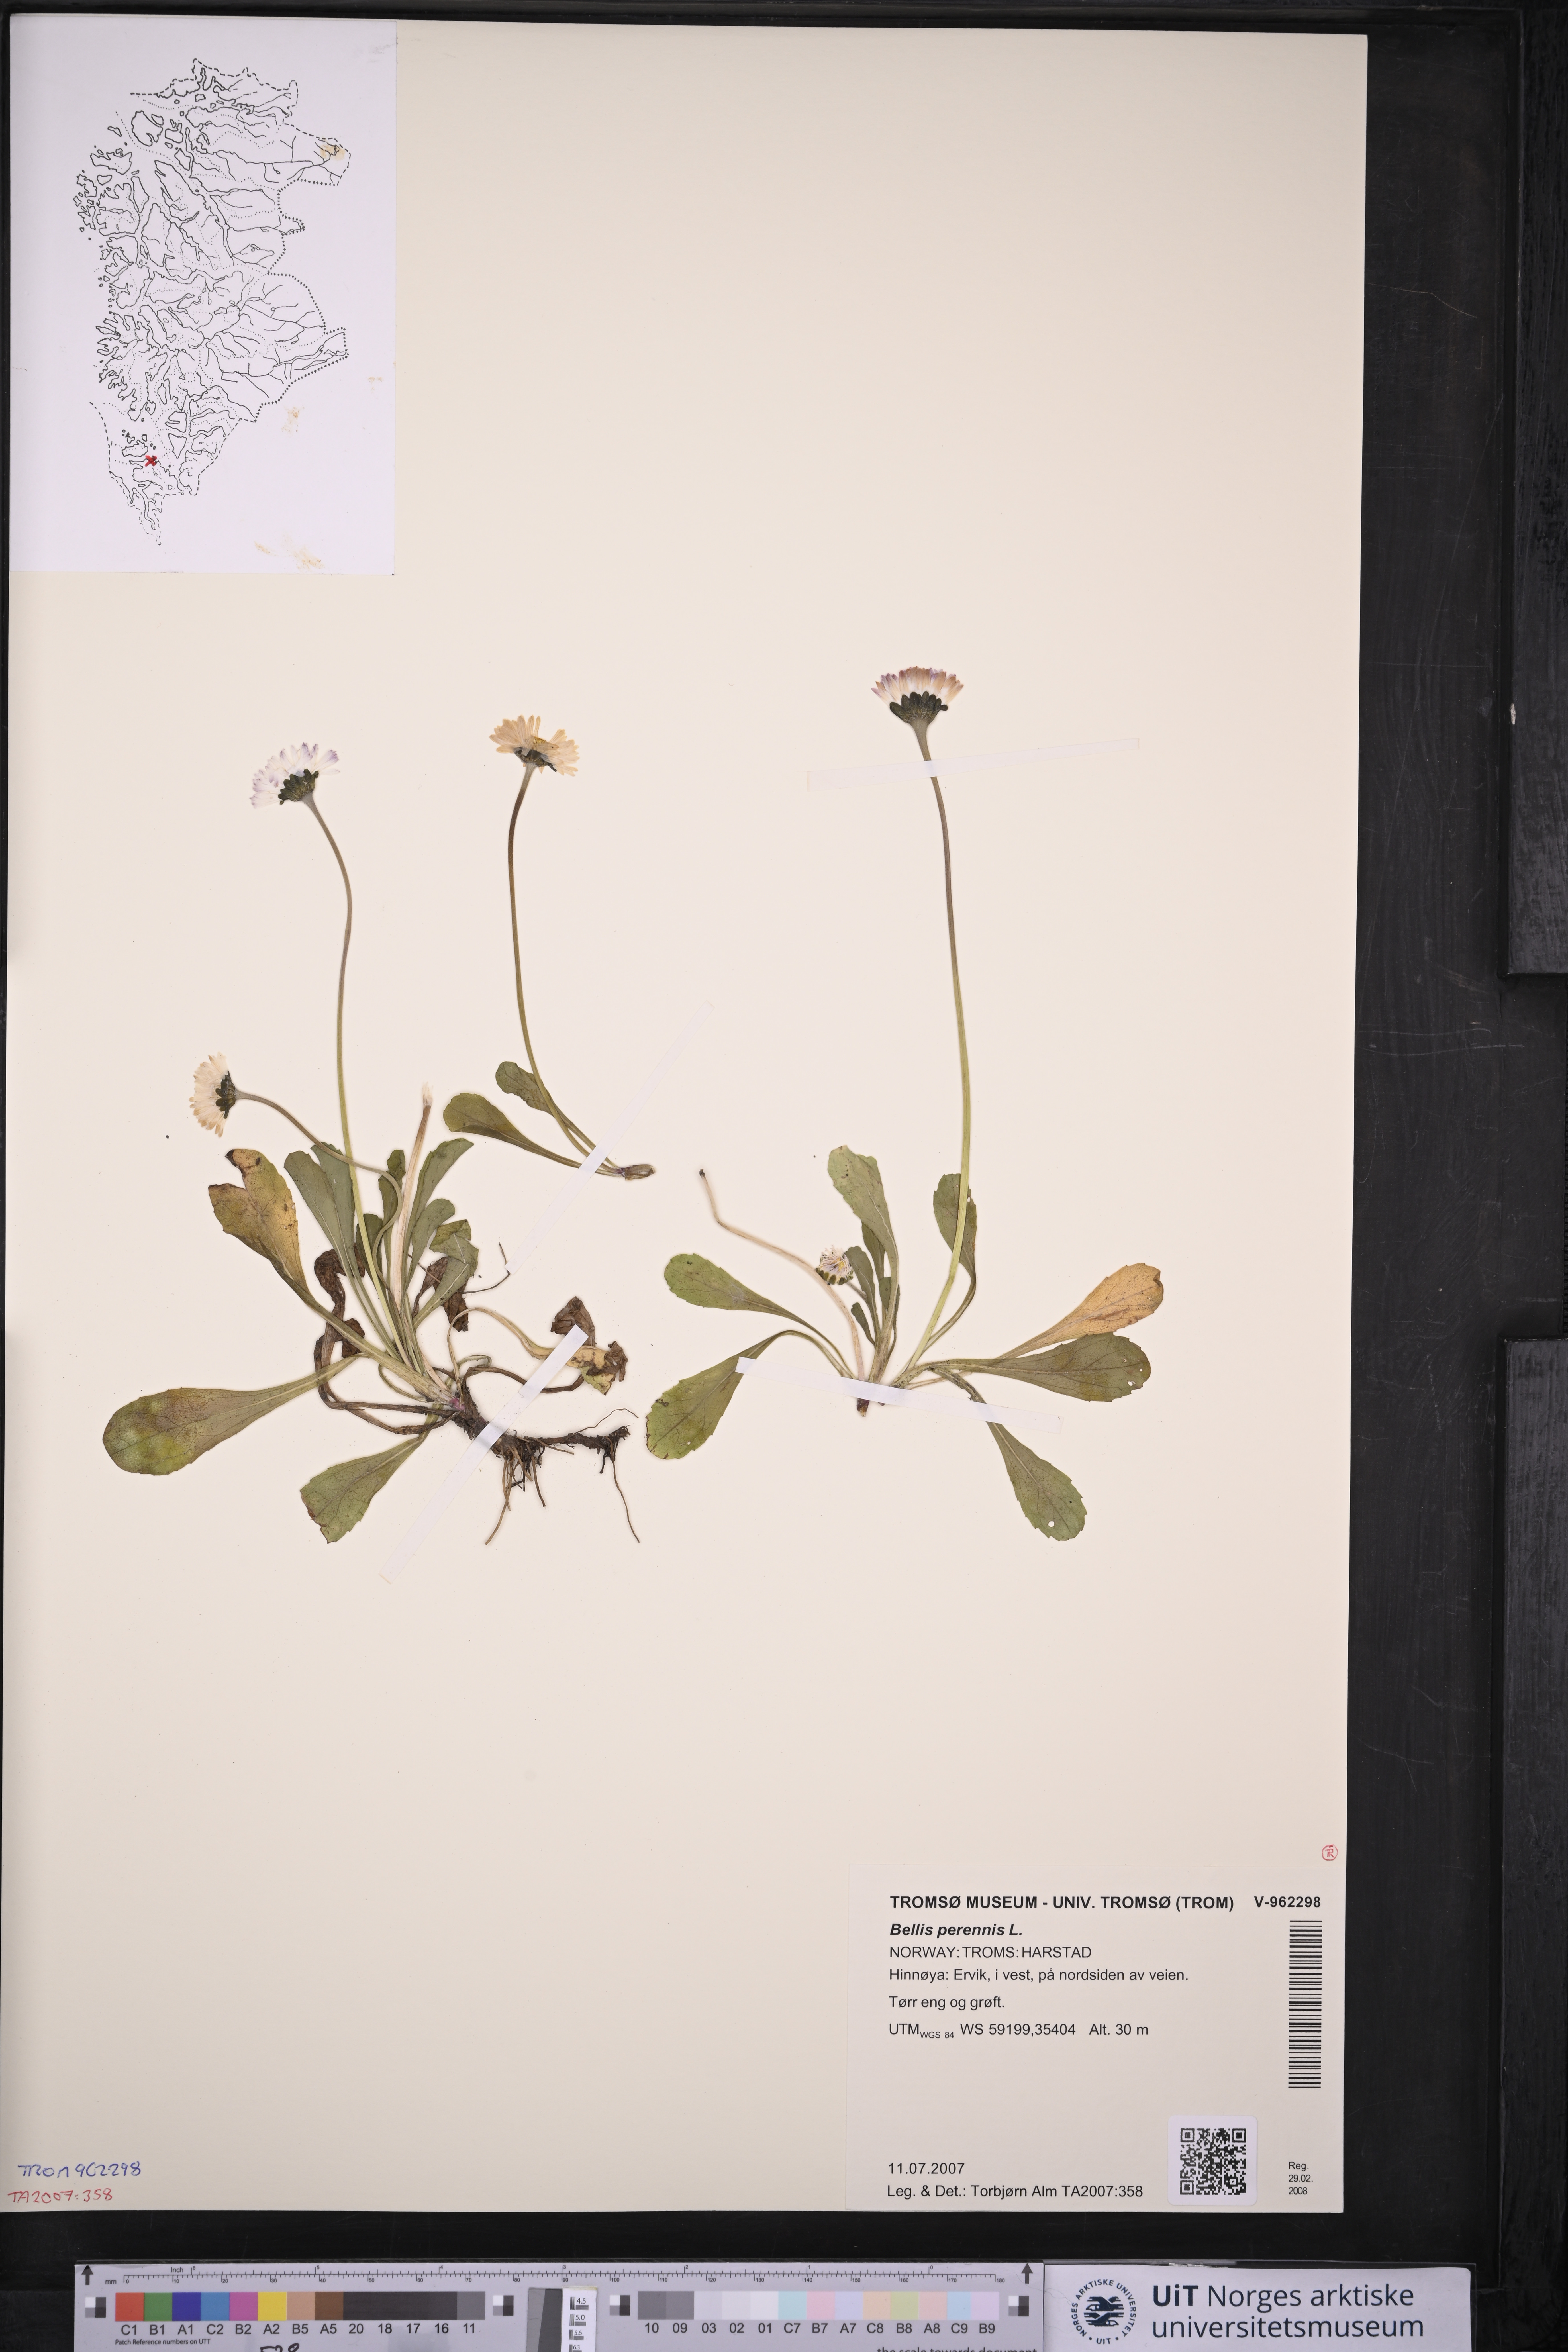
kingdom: Plantae
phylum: Tracheophyta
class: Magnoliopsida
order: Asterales
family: Asteraceae
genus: Bellis
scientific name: Bellis perennis
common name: Lawndaisy
